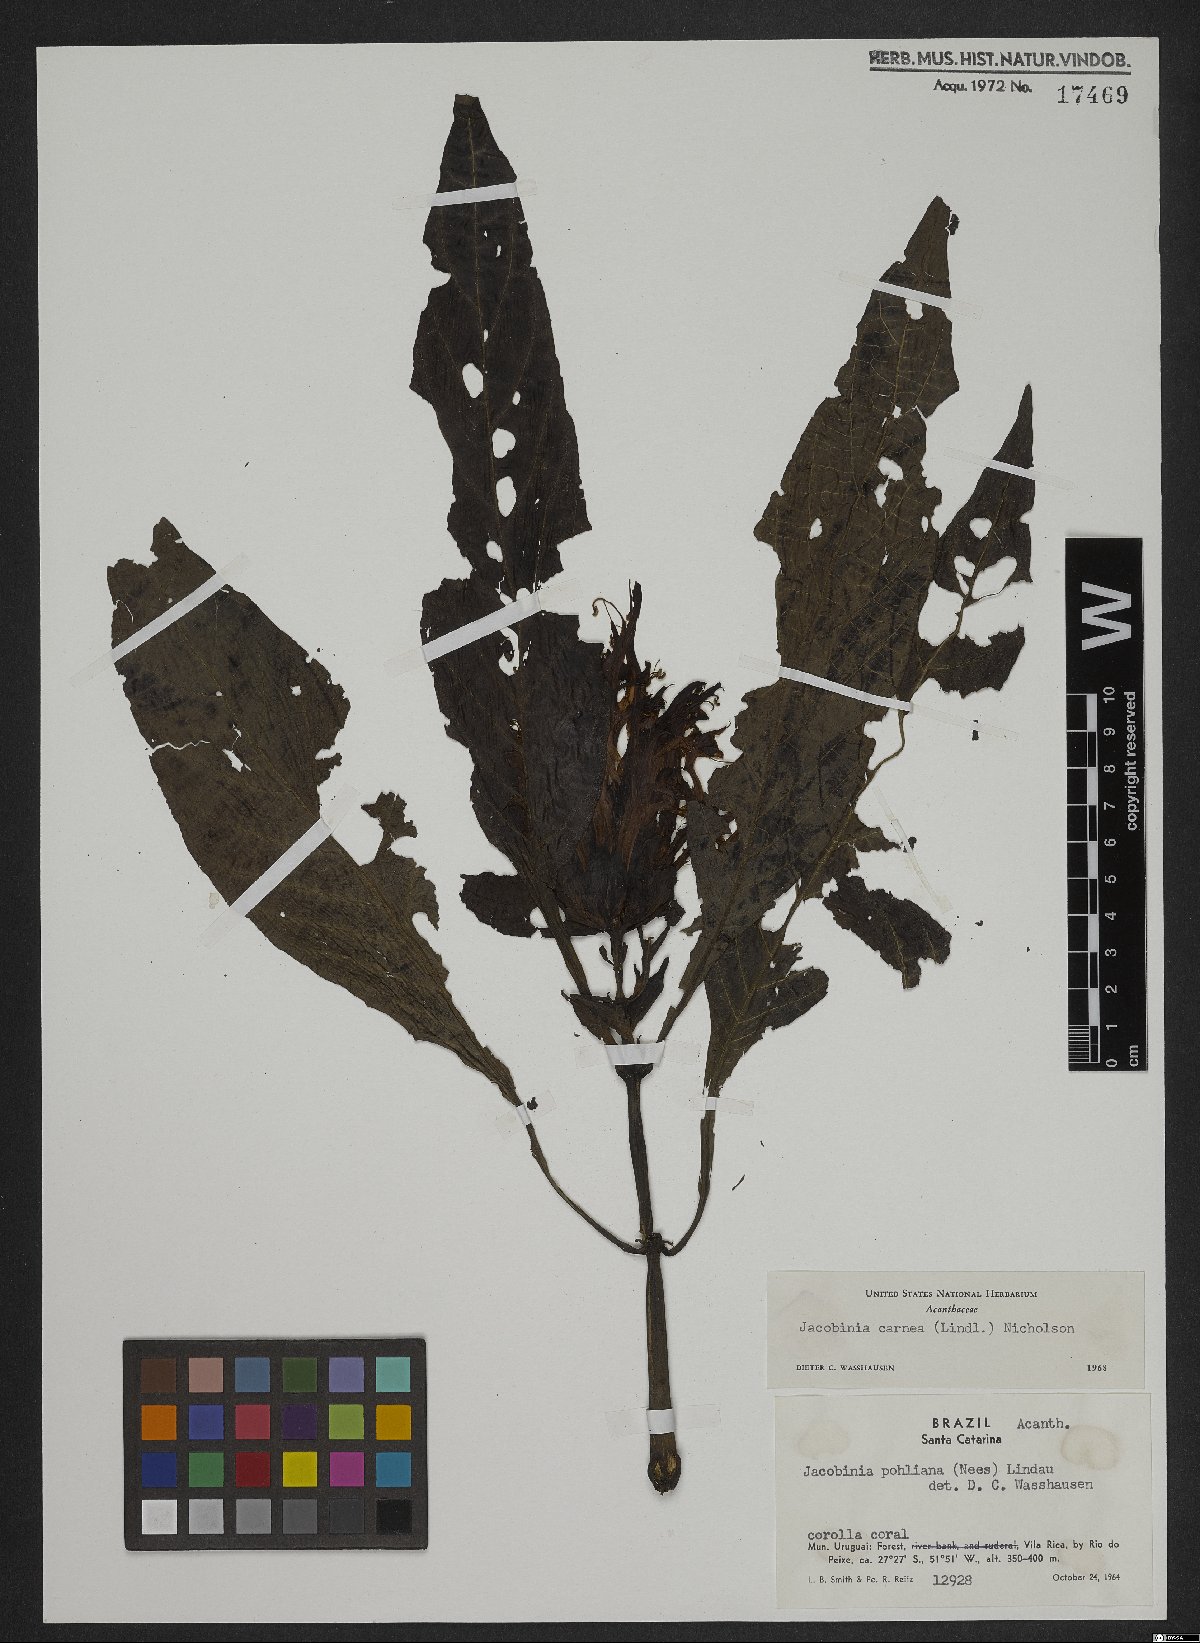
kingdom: Plantae
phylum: Tracheophyta
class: Magnoliopsida
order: Lamiales
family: Acanthaceae
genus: Justicia
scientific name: Justicia carnea
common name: Brazilian-plume
